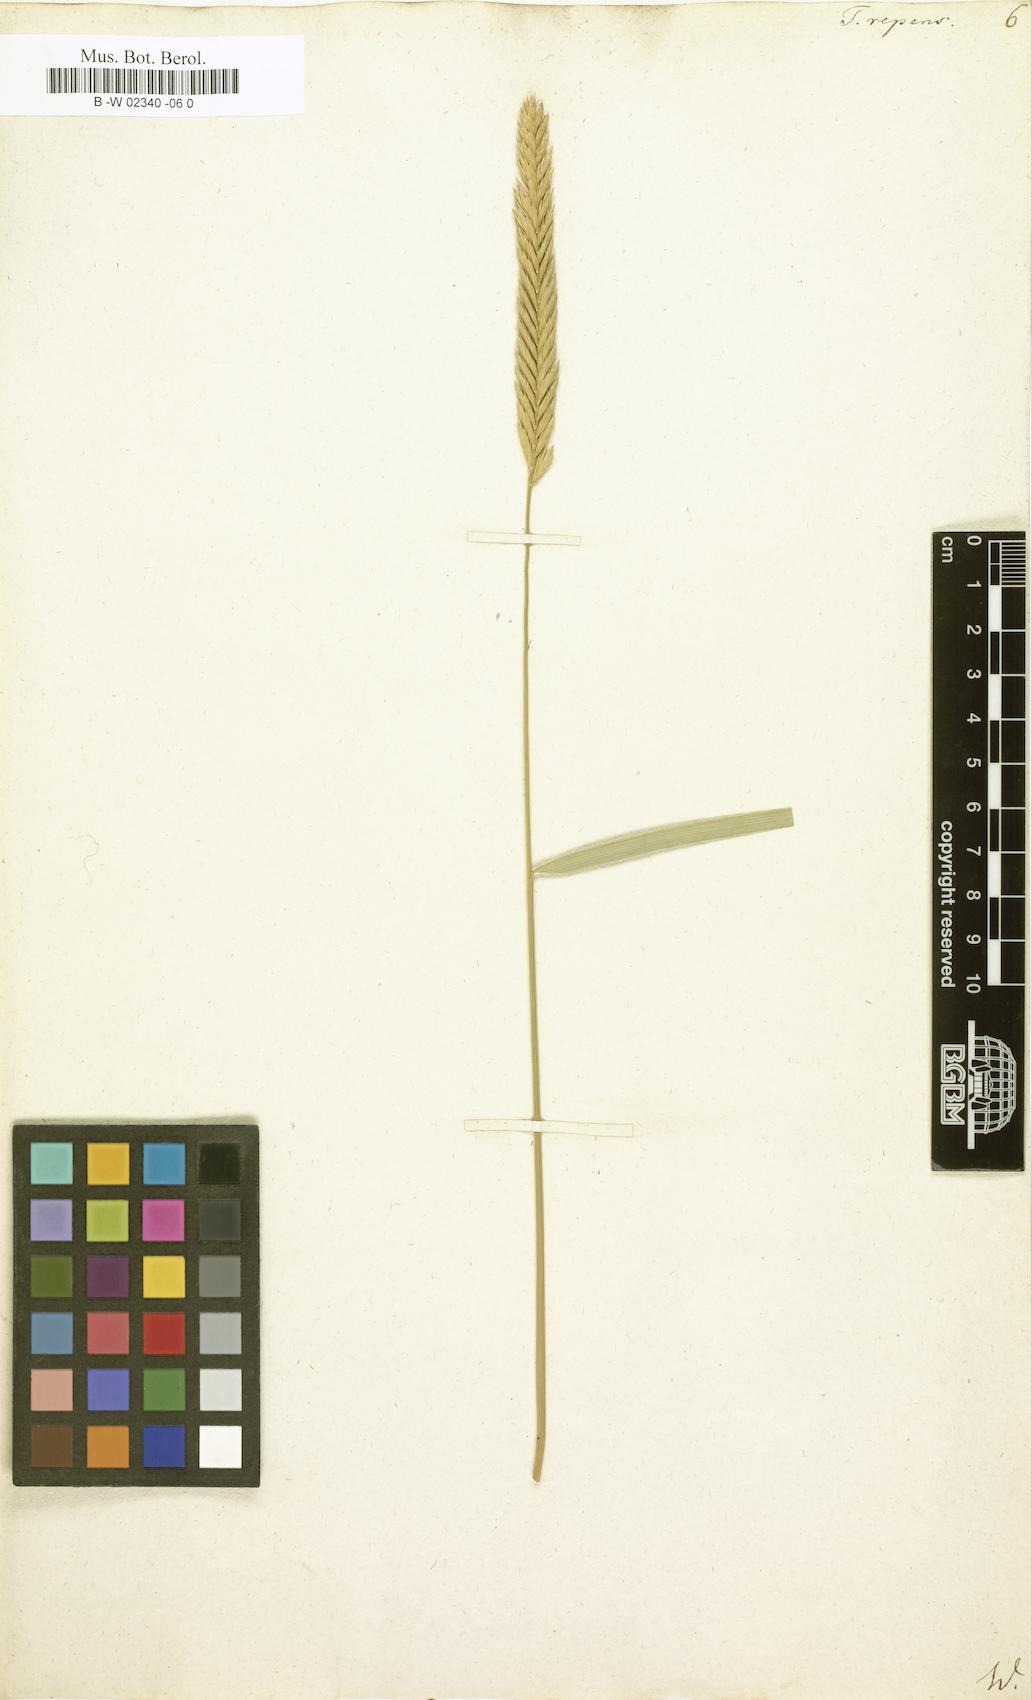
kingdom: Plantae
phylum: Tracheophyta
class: Liliopsida
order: Poales
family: Poaceae
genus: Elymus
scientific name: Elymus repens
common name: Quackgrass
